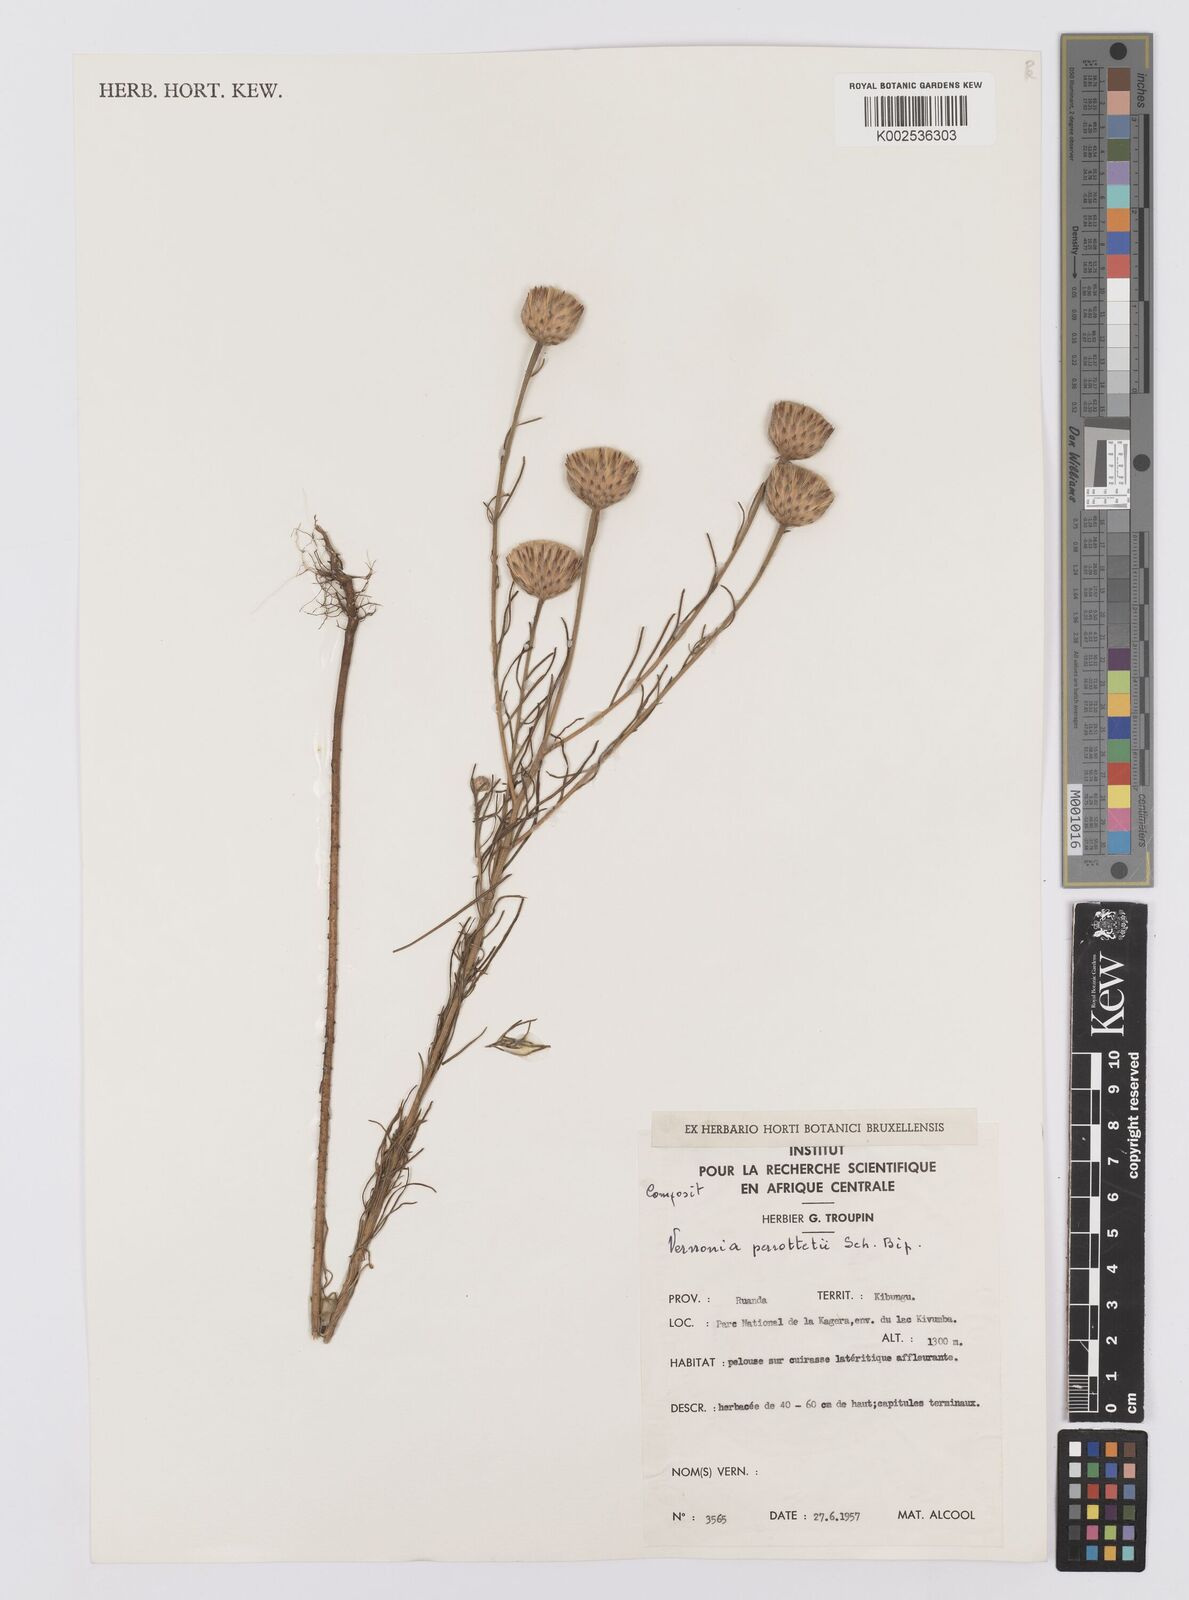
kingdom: Plantae
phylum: Tracheophyta
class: Magnoliopsida
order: Asterales
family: Asteraceae
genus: Crystallopollen
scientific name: Crystallopollen serratuloides
